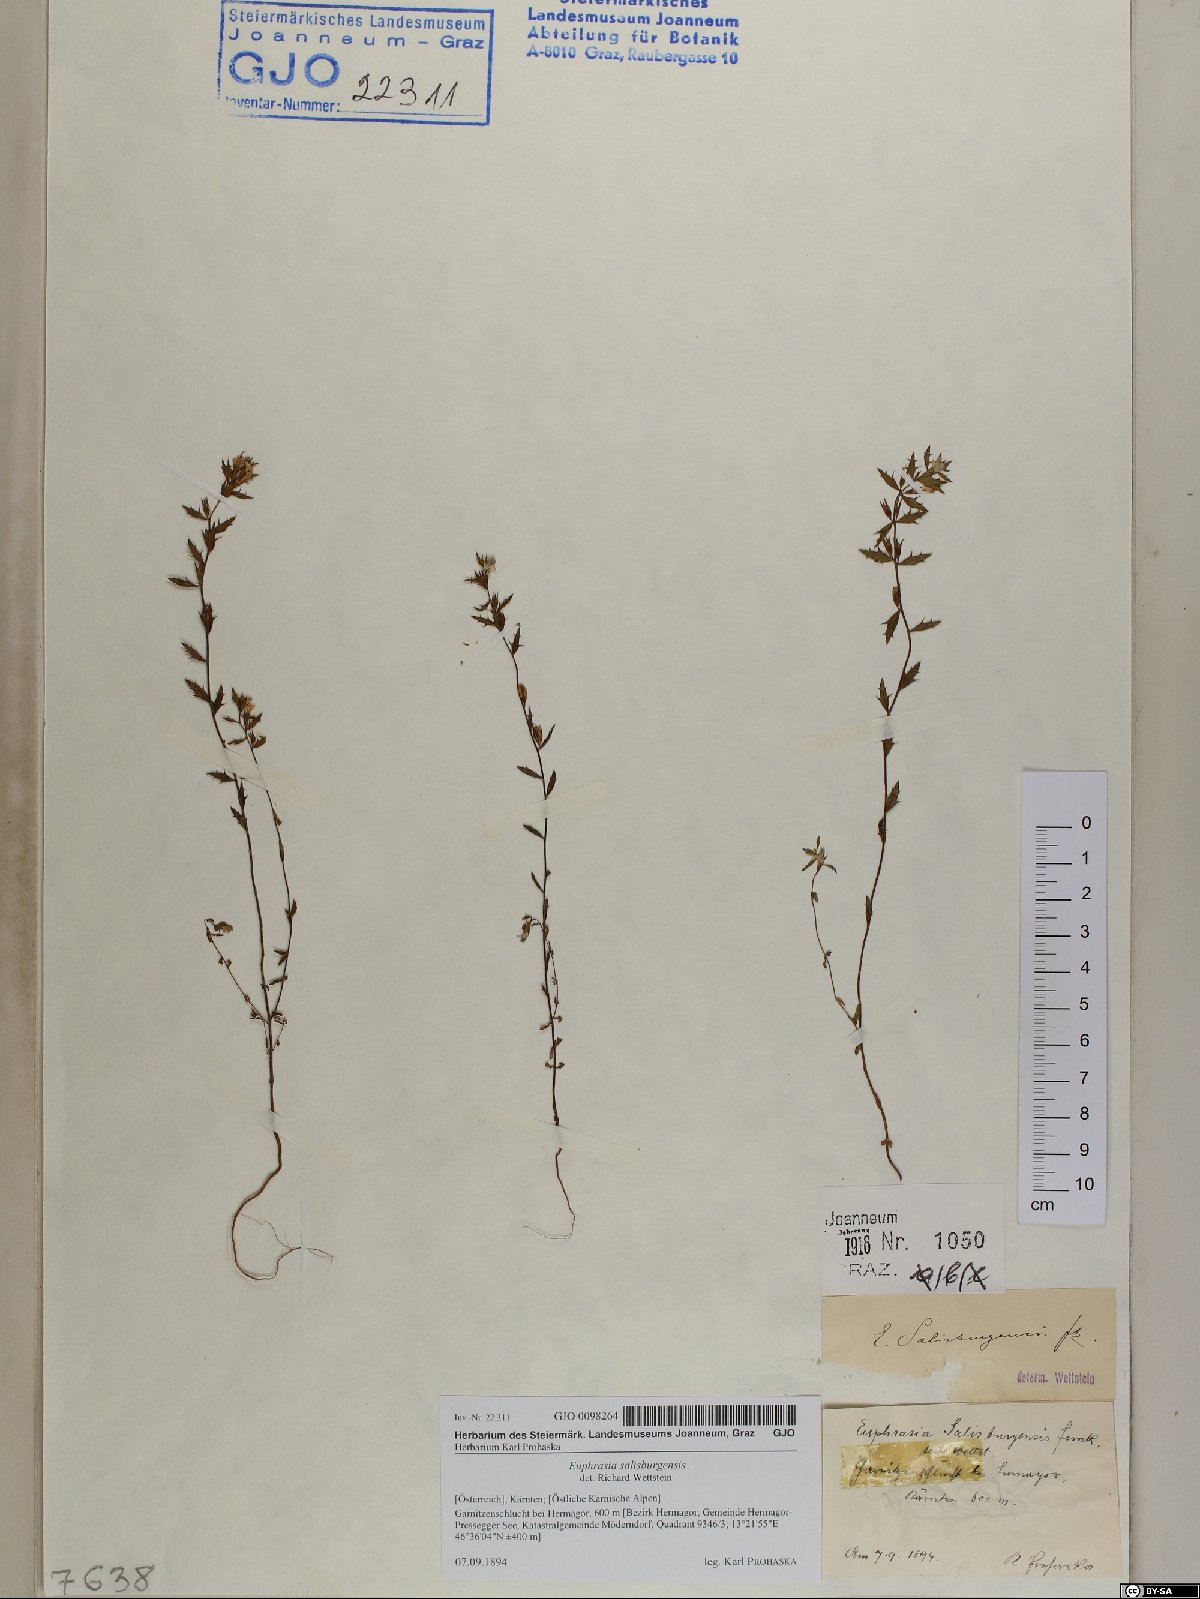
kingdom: Plantae
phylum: Tracheophyta
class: Magnoliopsida
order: Lamiales
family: Orobanchaceae
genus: Euphrasia
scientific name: Euphrasia salisburgensis
